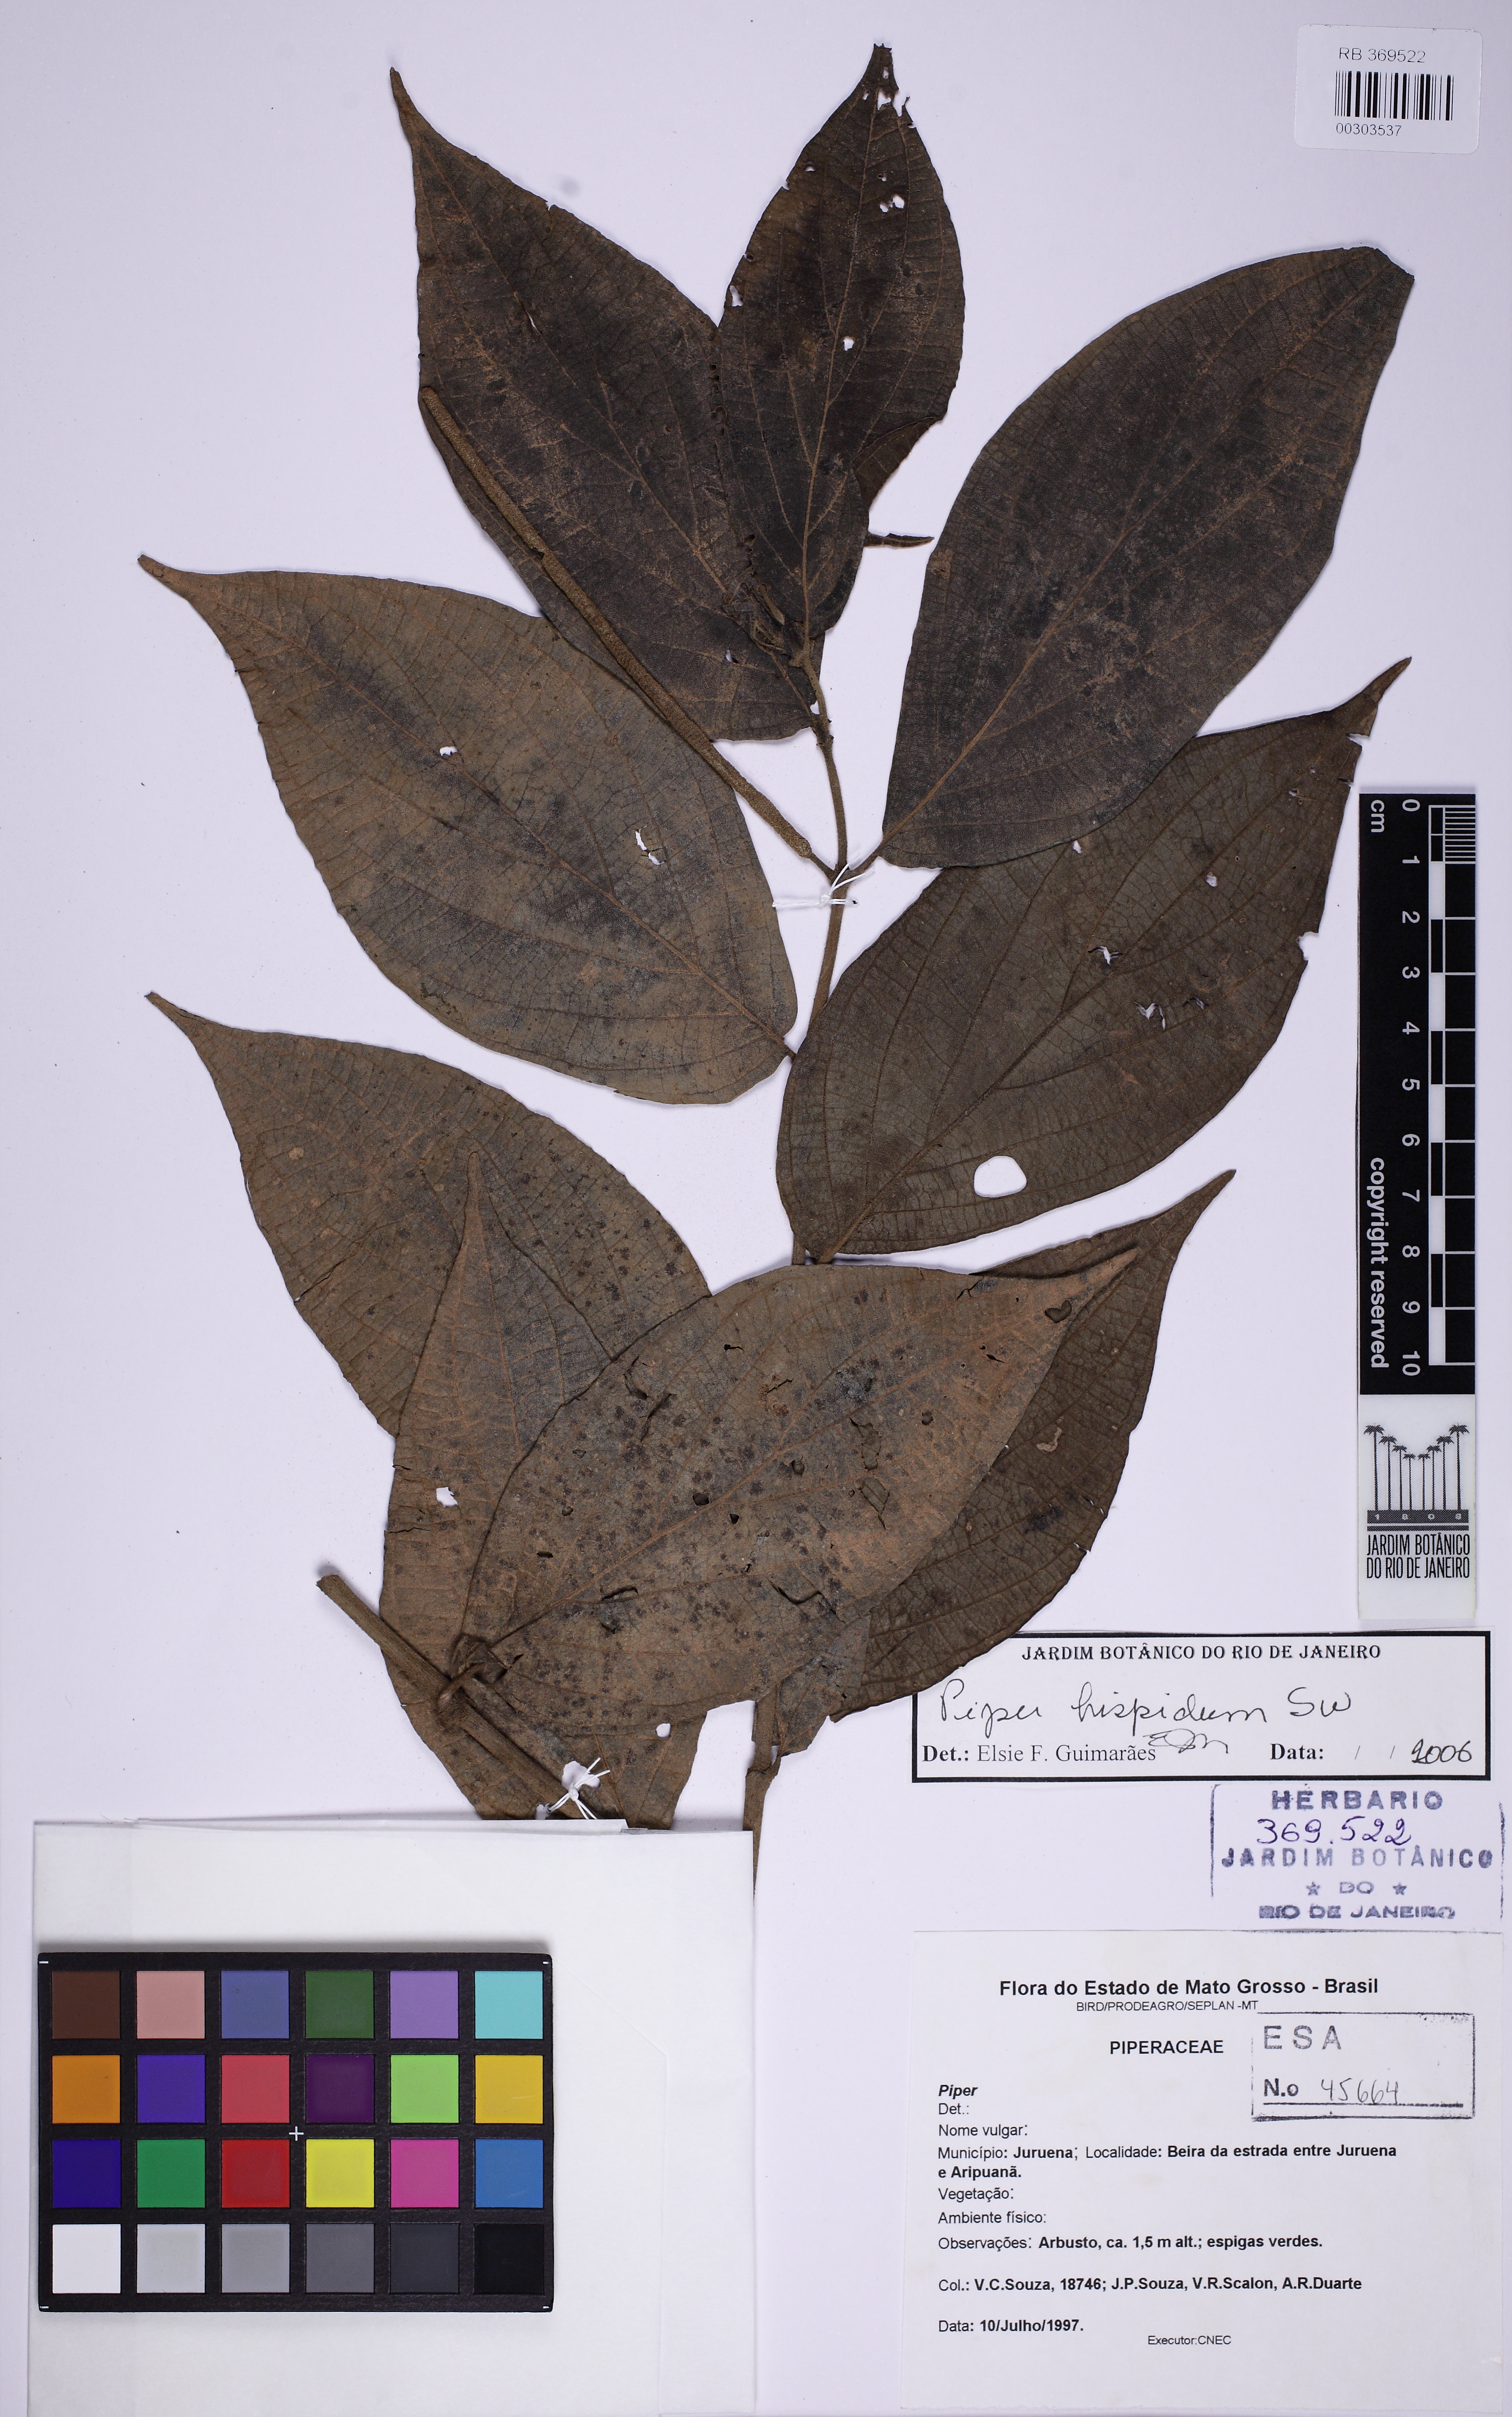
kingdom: Plantae
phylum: Tracheophyta
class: Magnoliopsida
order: Piperales
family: Piperaceae
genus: Piper
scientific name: Piper hispidum
